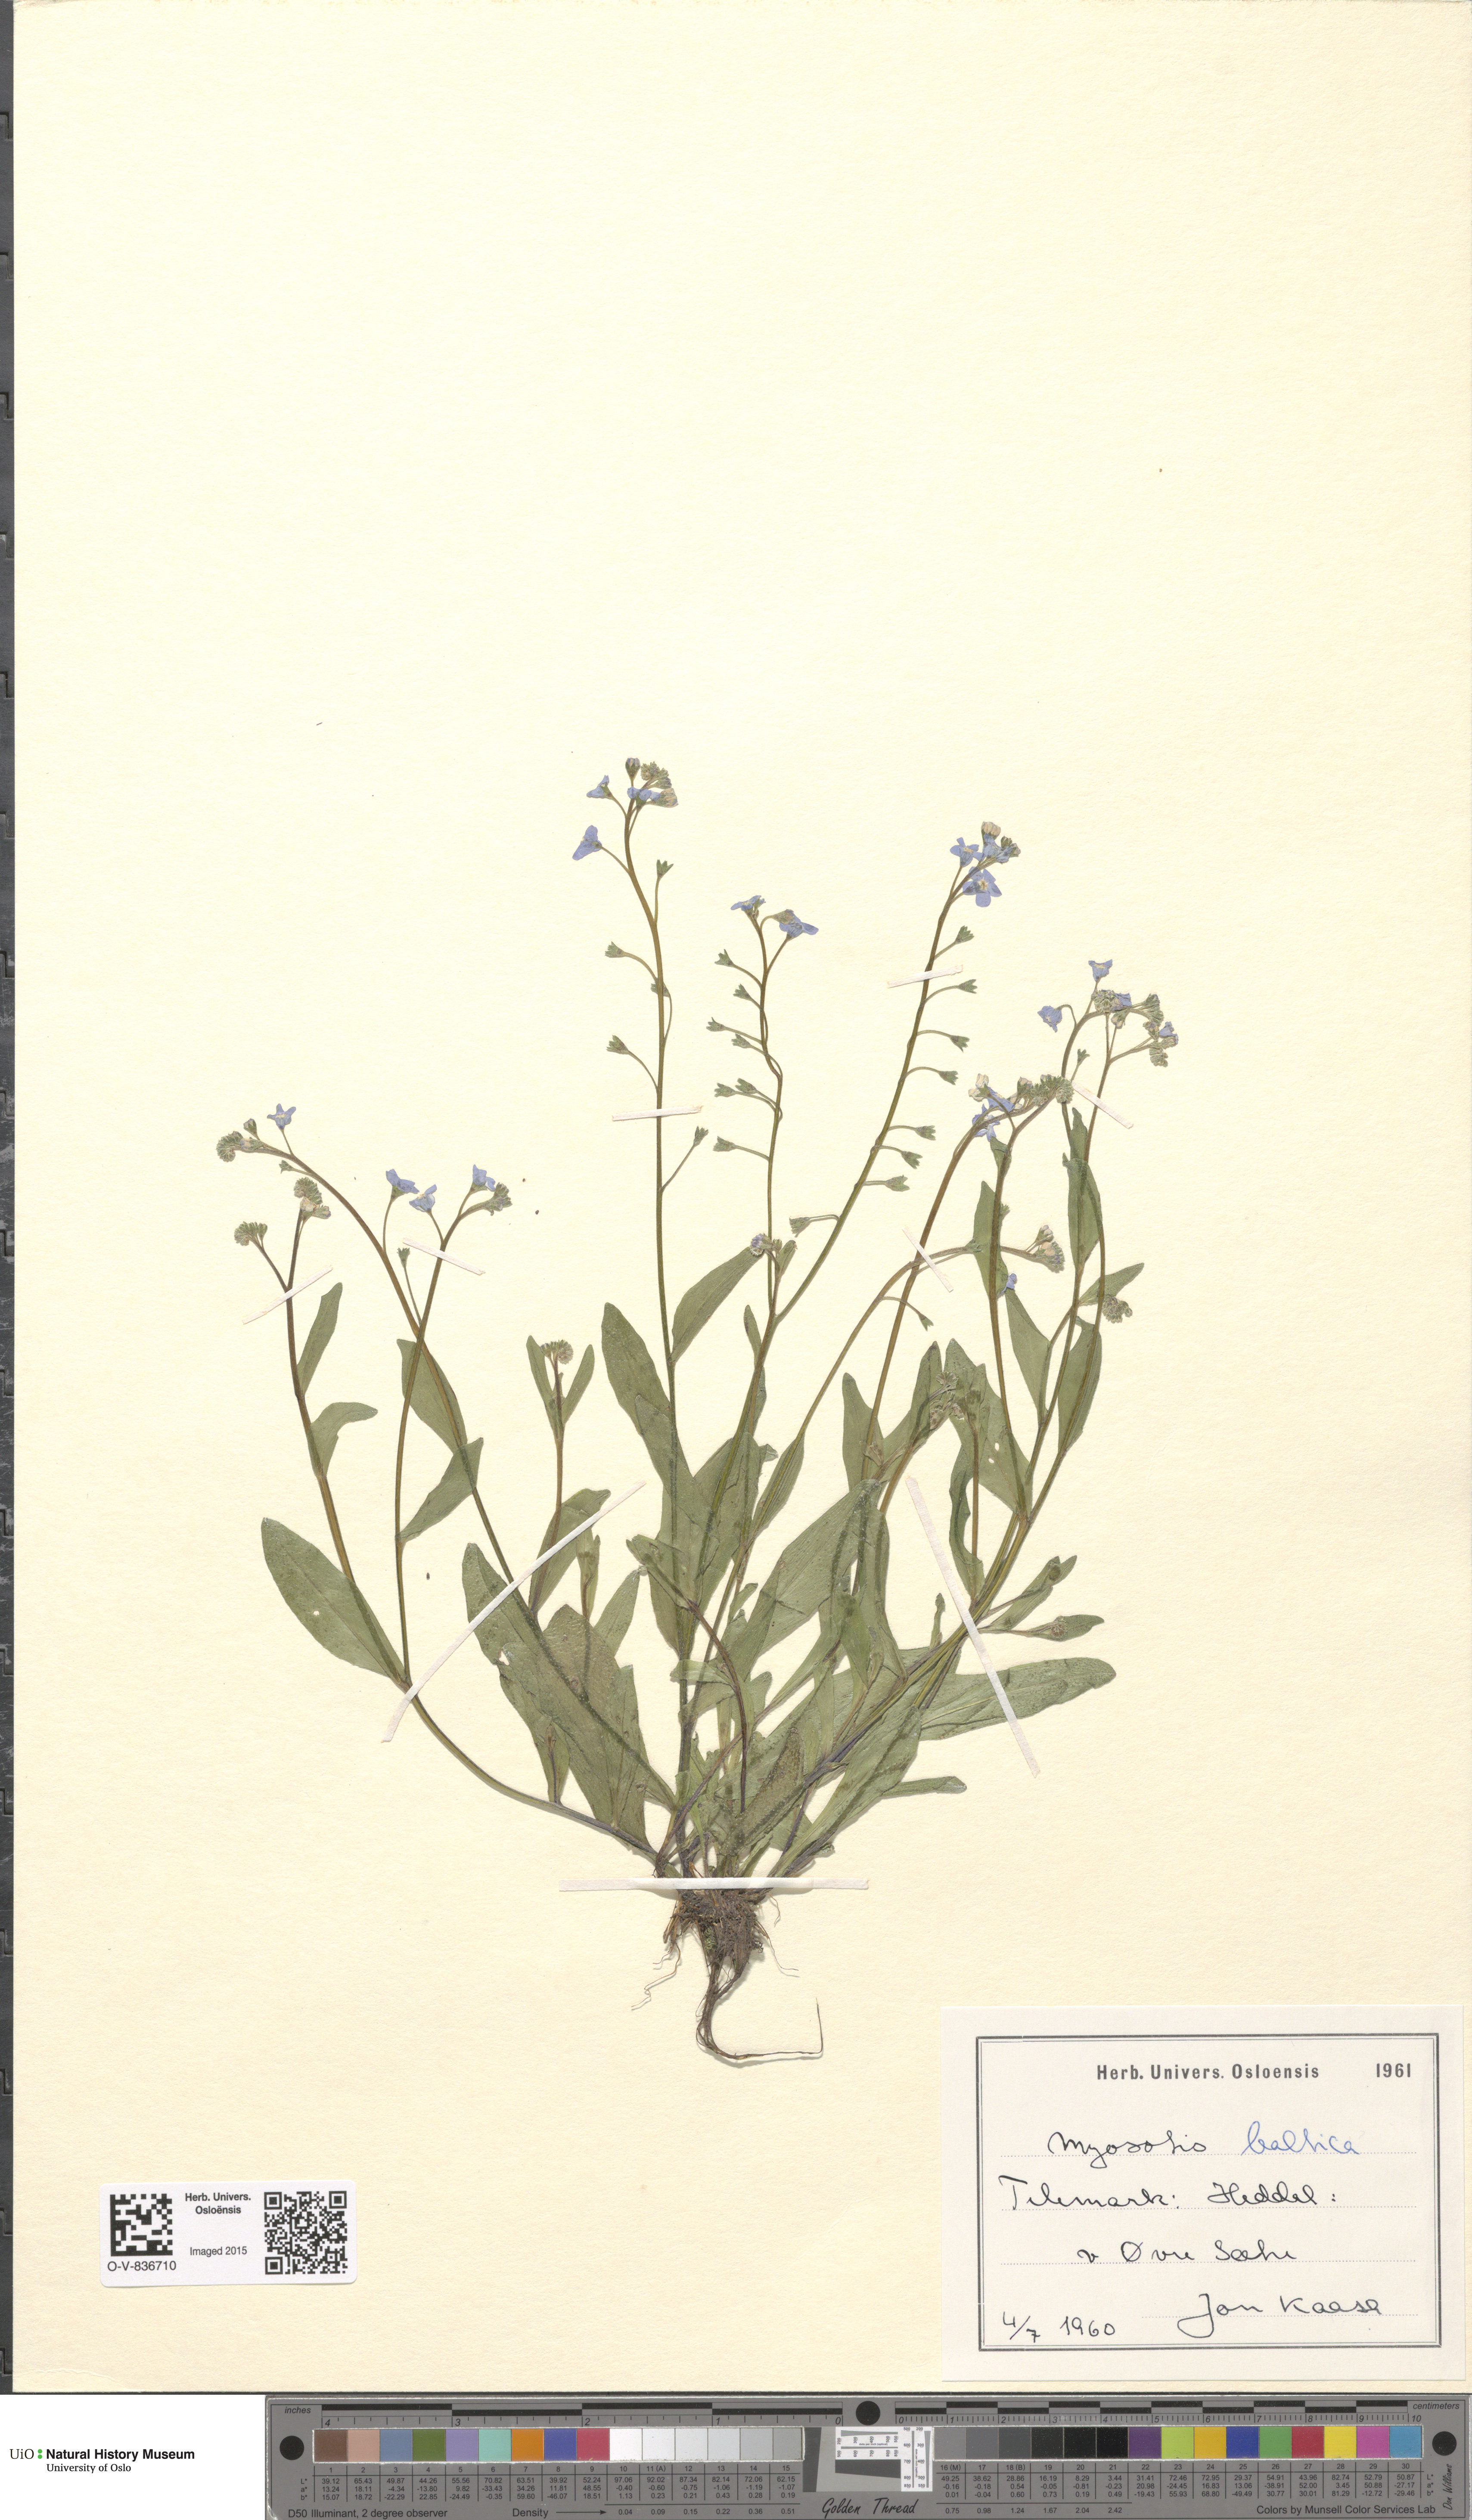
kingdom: Plantae
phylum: Tracheophyta
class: Magnoliopsida
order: Boraginales
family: Boraginaceae
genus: Myosotis
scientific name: Myosotis laxa
